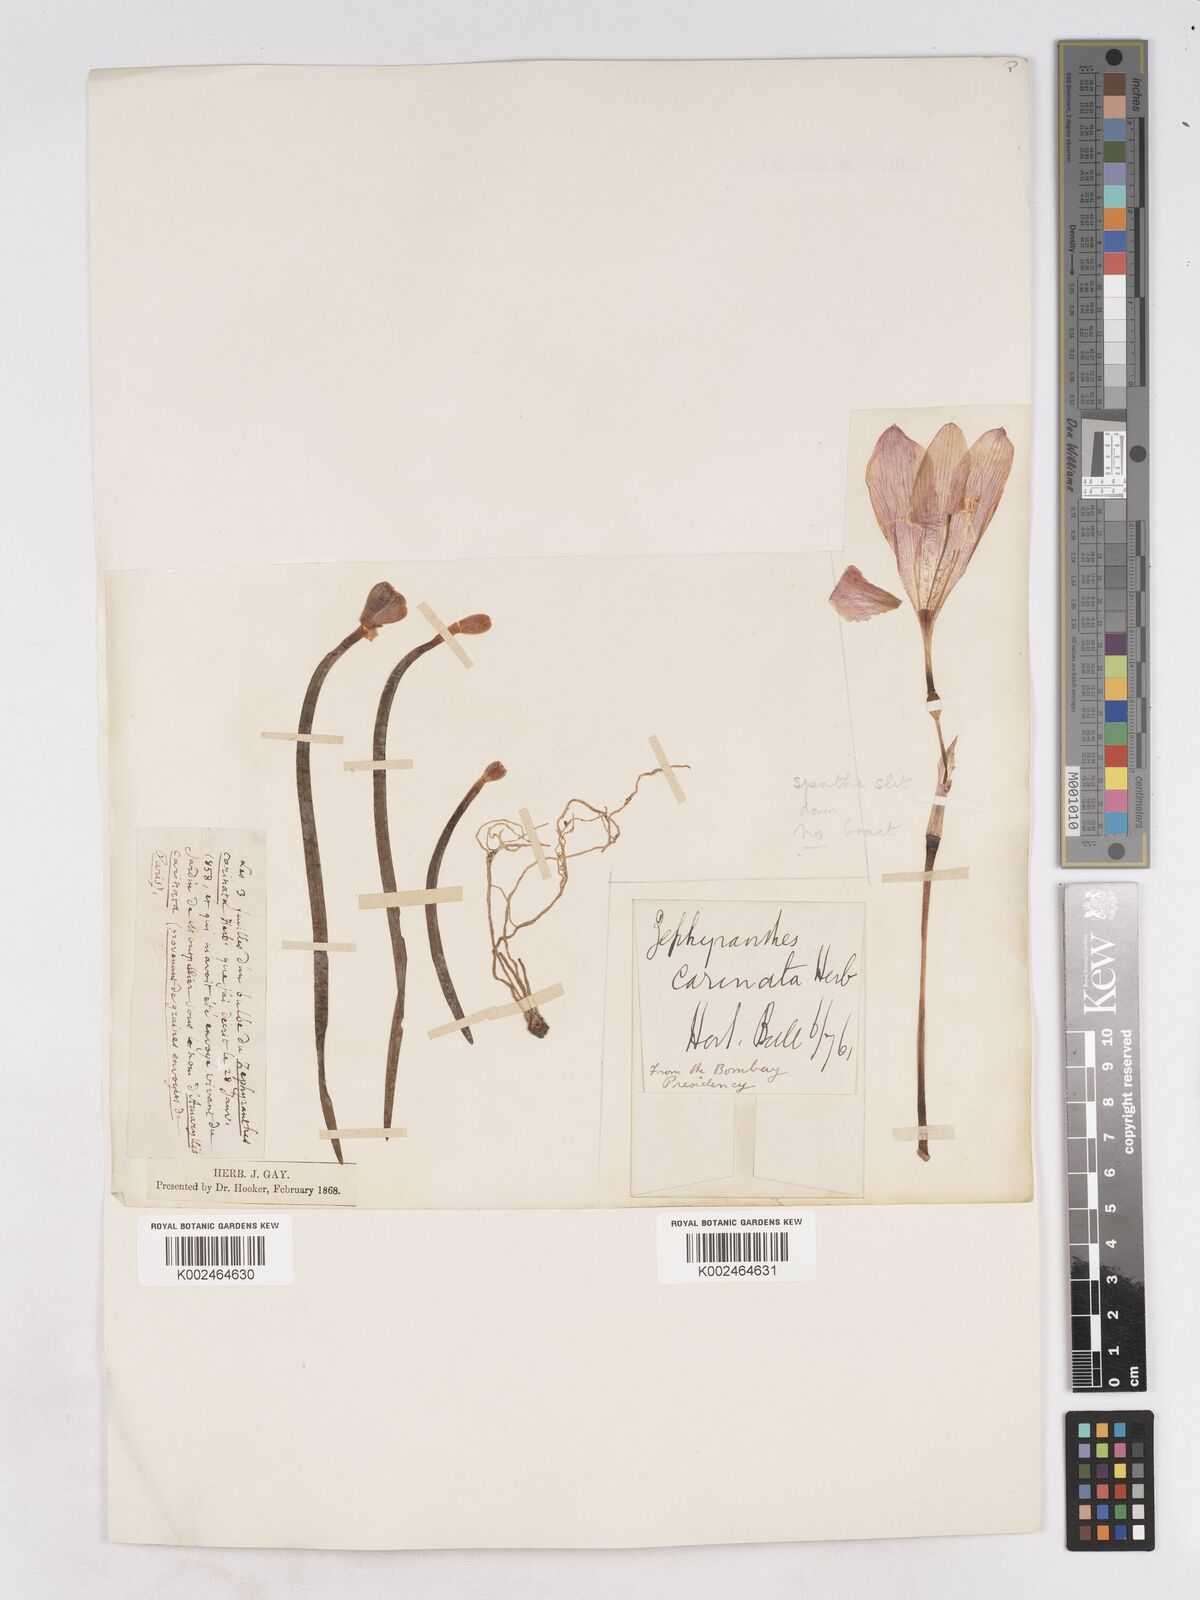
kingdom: Plantae
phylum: Tracheophyta
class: Liliopsida
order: Asparagales
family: Amaryllidaceae
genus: Zephyranthes
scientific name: Zephyranthes minuta
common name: Pink rain lily
